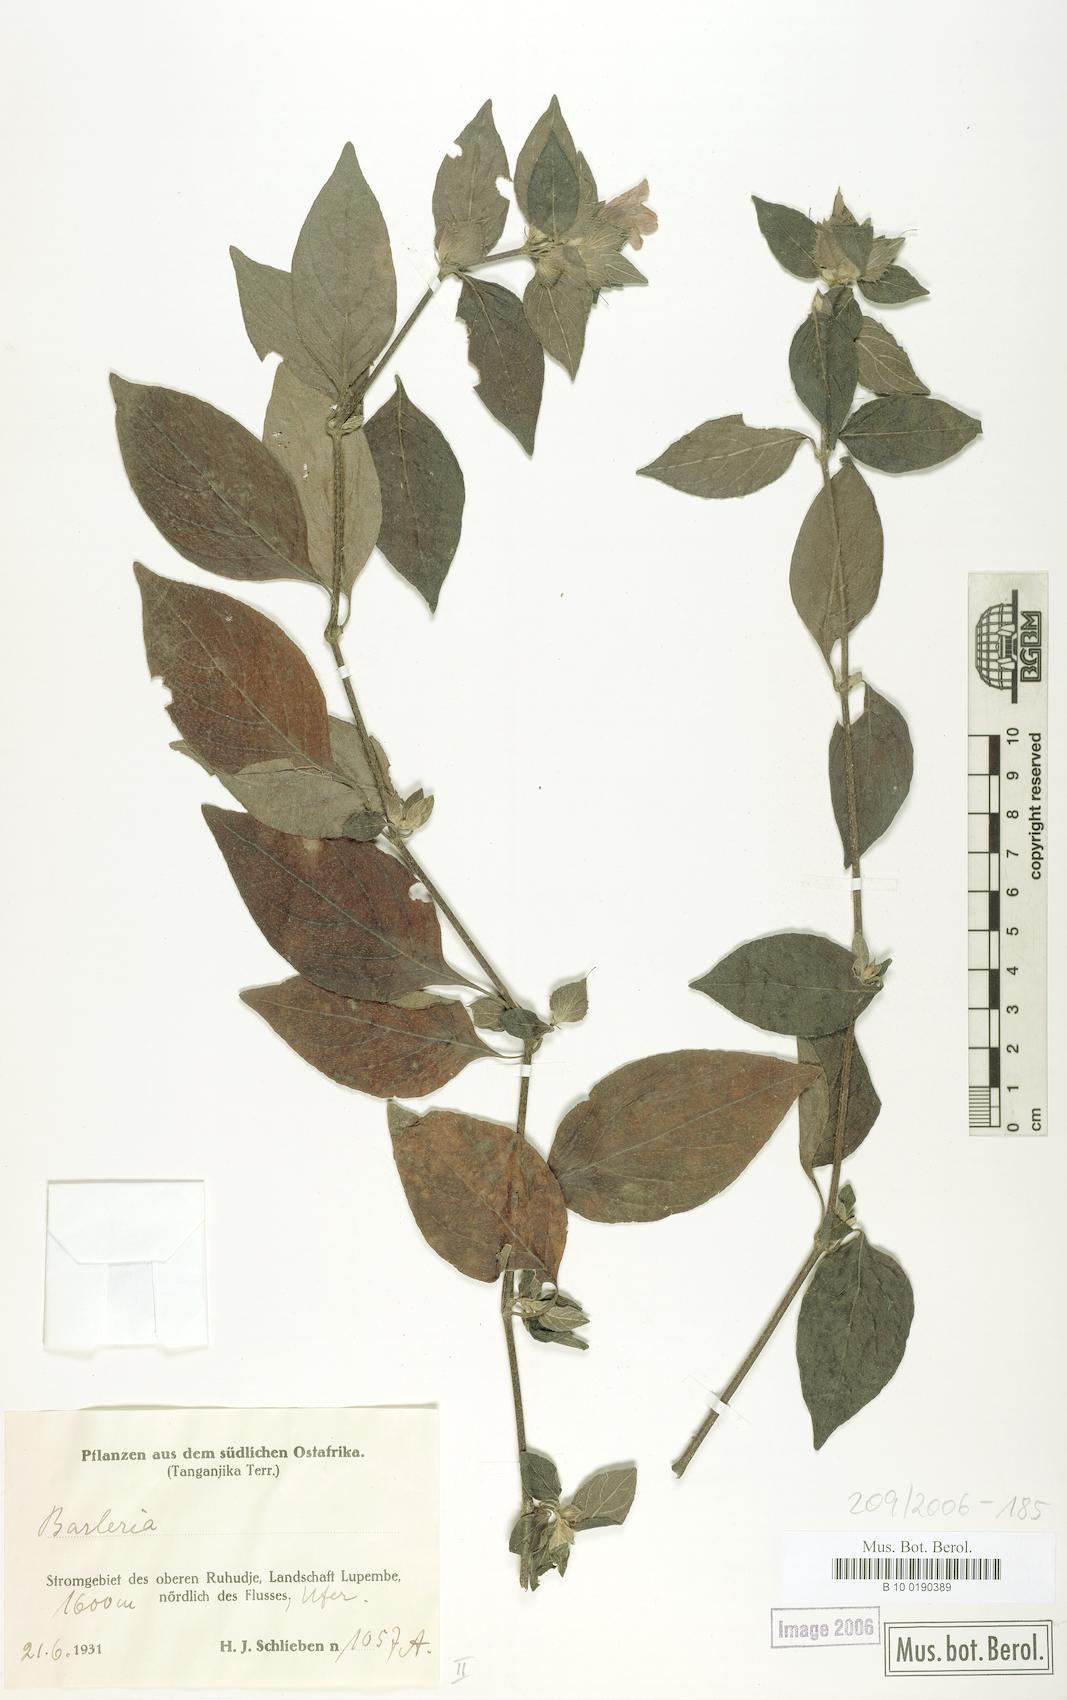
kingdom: Plantae
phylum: Tracheophyta
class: Magnoliopsida
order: Lamiales
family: Acanthaceae
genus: Barleria
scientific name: Barleria ventricosa
